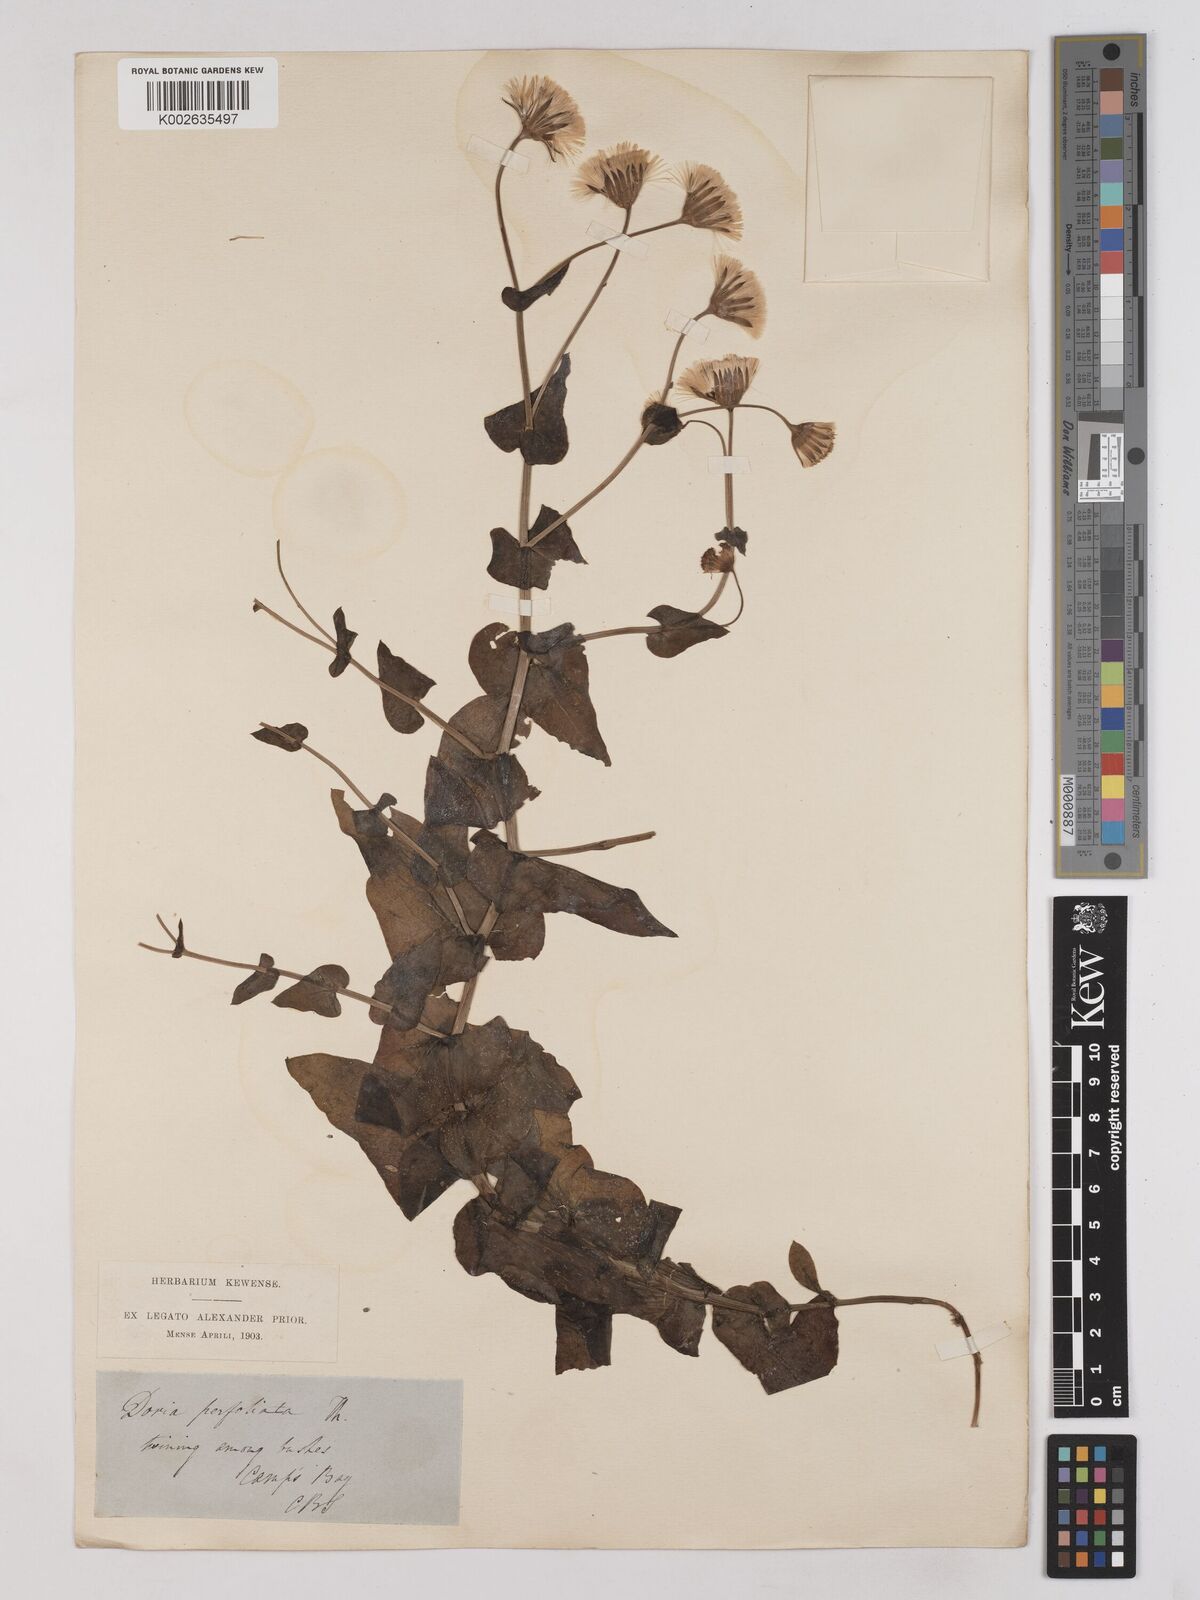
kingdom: Plantae
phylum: Tracheophyta
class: Magnoliopsida
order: Asterales
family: Asteraceae
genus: Othonna
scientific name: Othonna perfoliata
